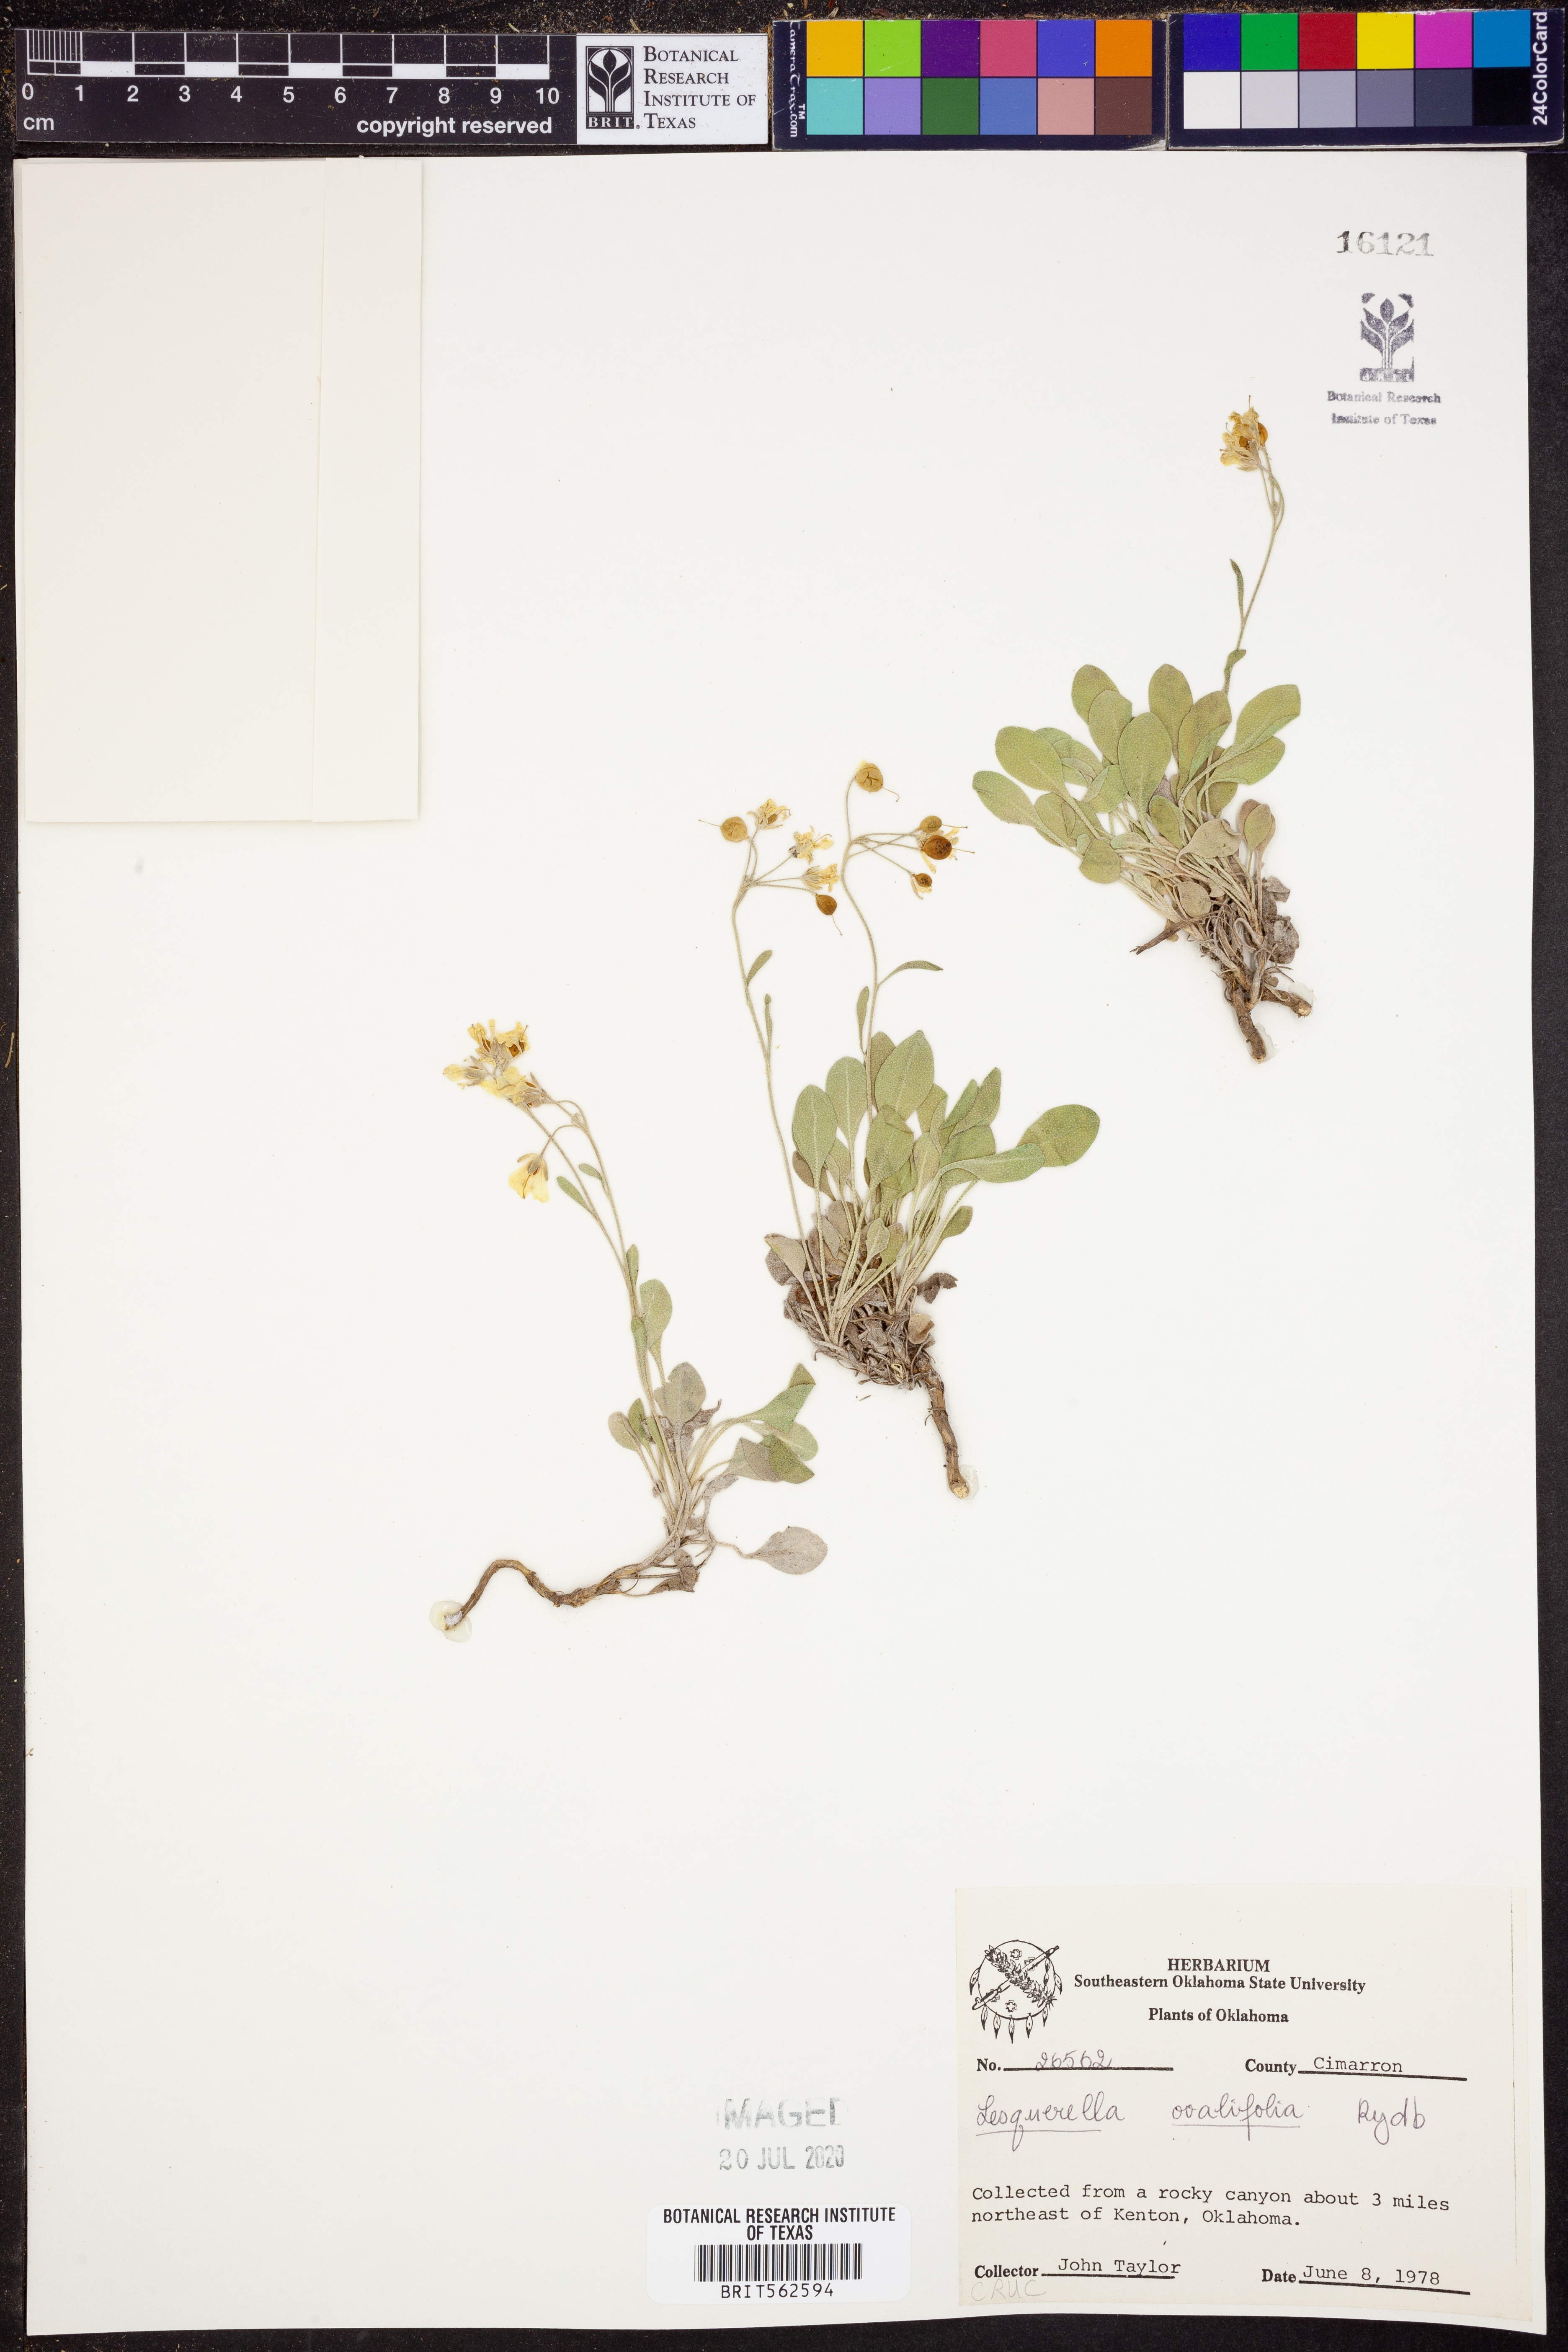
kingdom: Plantae
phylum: Tracheophyta
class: Magnoliopsida
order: Brassicales
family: Brassicaceae
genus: Physaria
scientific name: Physaria ovalifolia
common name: Round-leaf bladderpod
